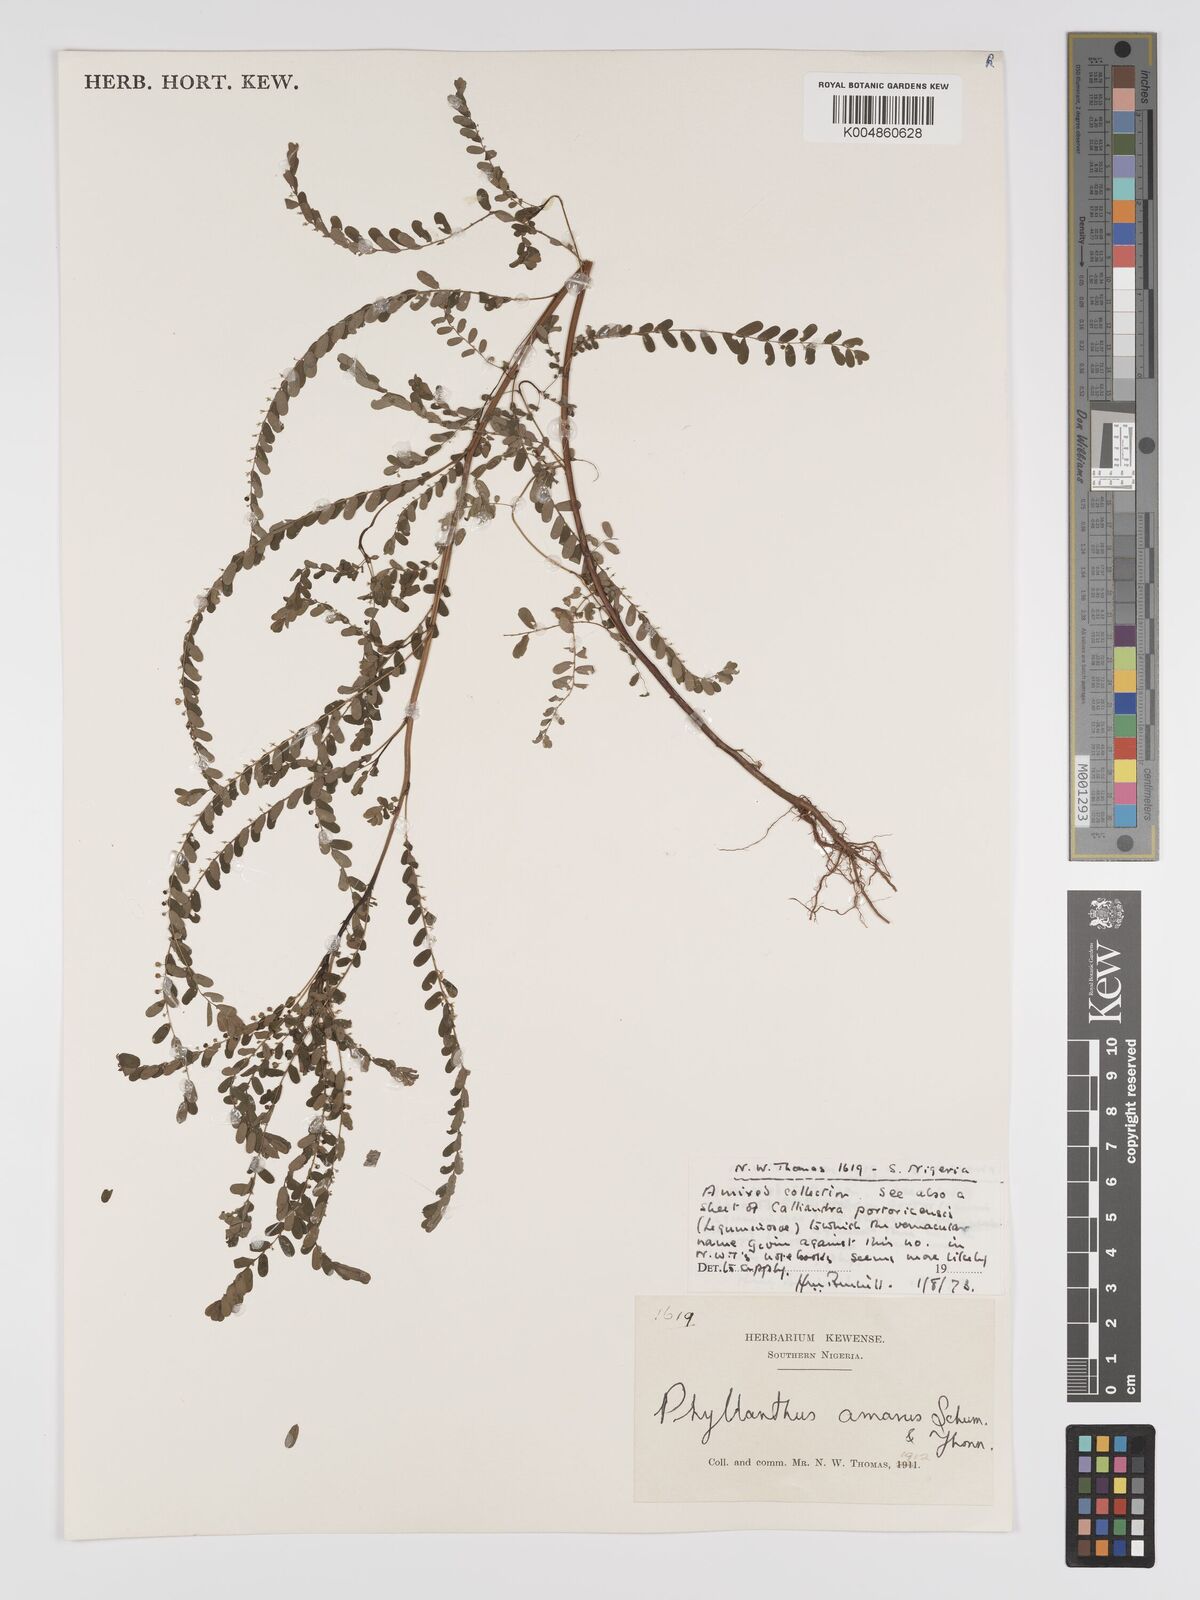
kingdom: Plantae
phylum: Tracheophyta
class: Magnoliopsida
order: Malpighiales
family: Phyllanthaceae
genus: Phyllanthus
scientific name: Phyllanthus amarus
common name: Carry me seed
